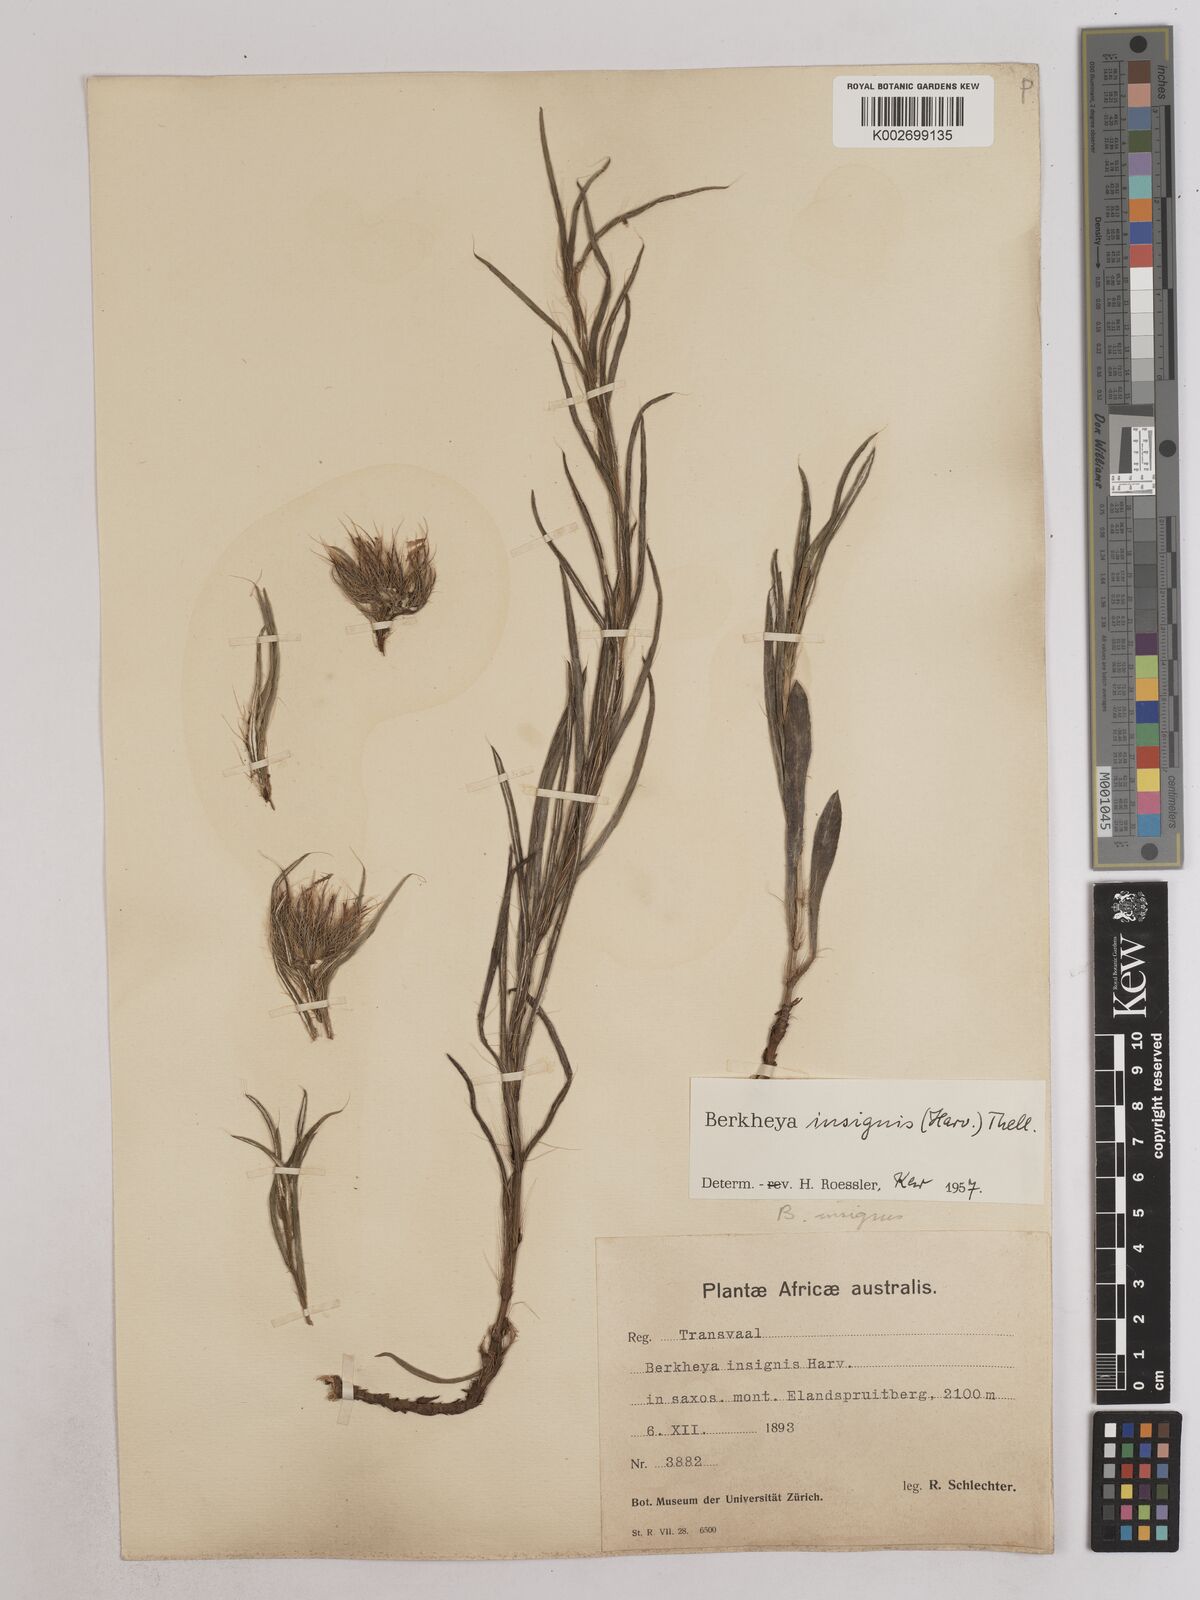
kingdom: Plantae
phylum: Tracheophyta
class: Magnoliopsida
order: Asterales
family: Asteraceae
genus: Berkheya
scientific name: Berkheya insignis
